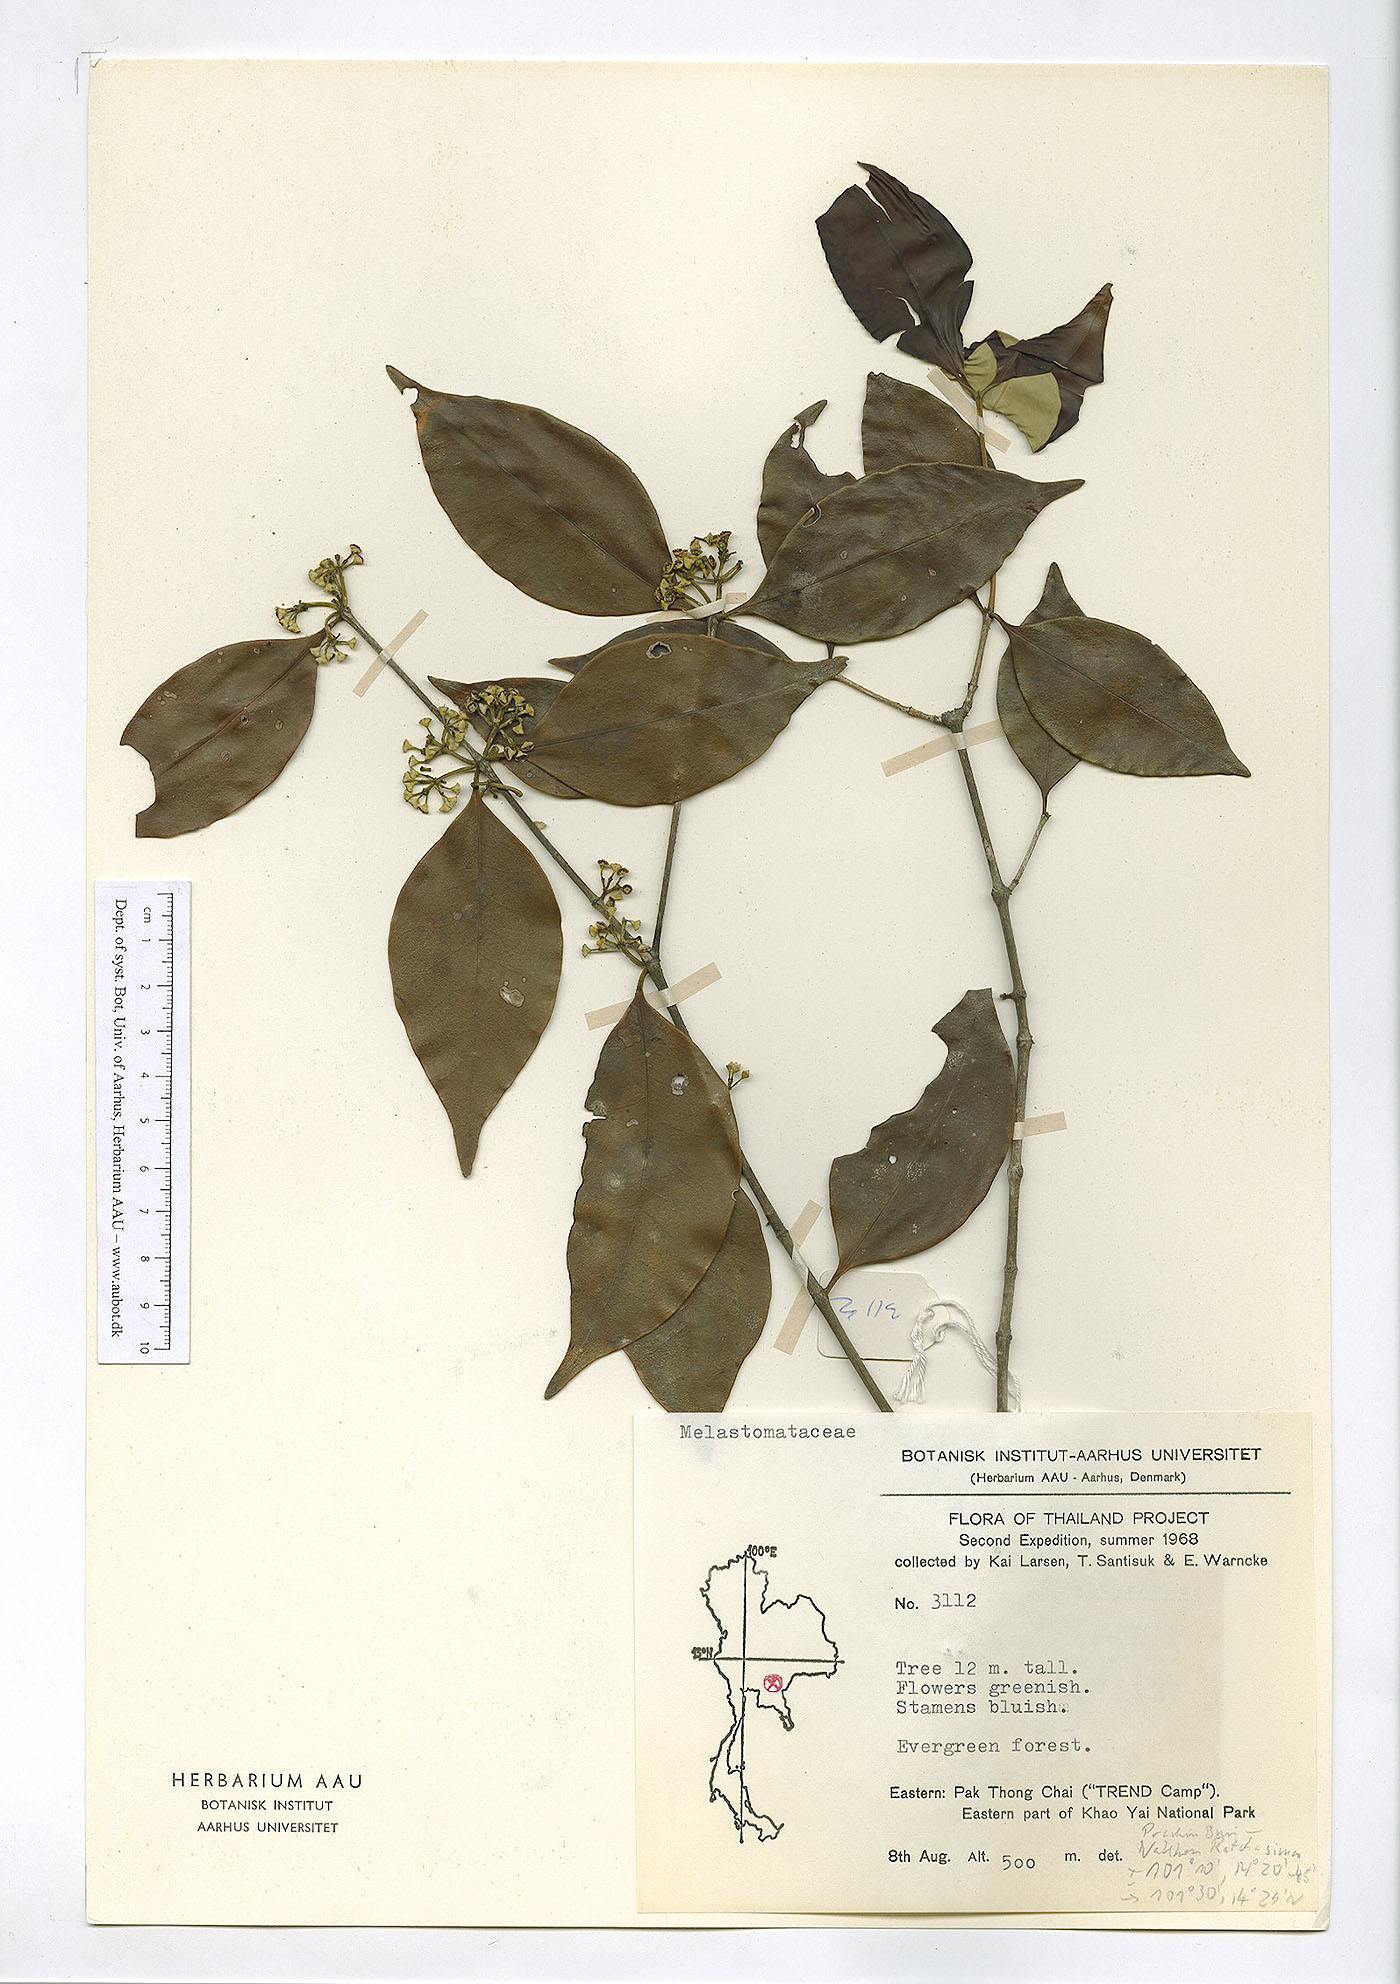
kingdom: Plantae
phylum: Tracheophyta
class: Magnoliopsida
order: Myrtales
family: Melastomataceae
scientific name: Melastomataceae
